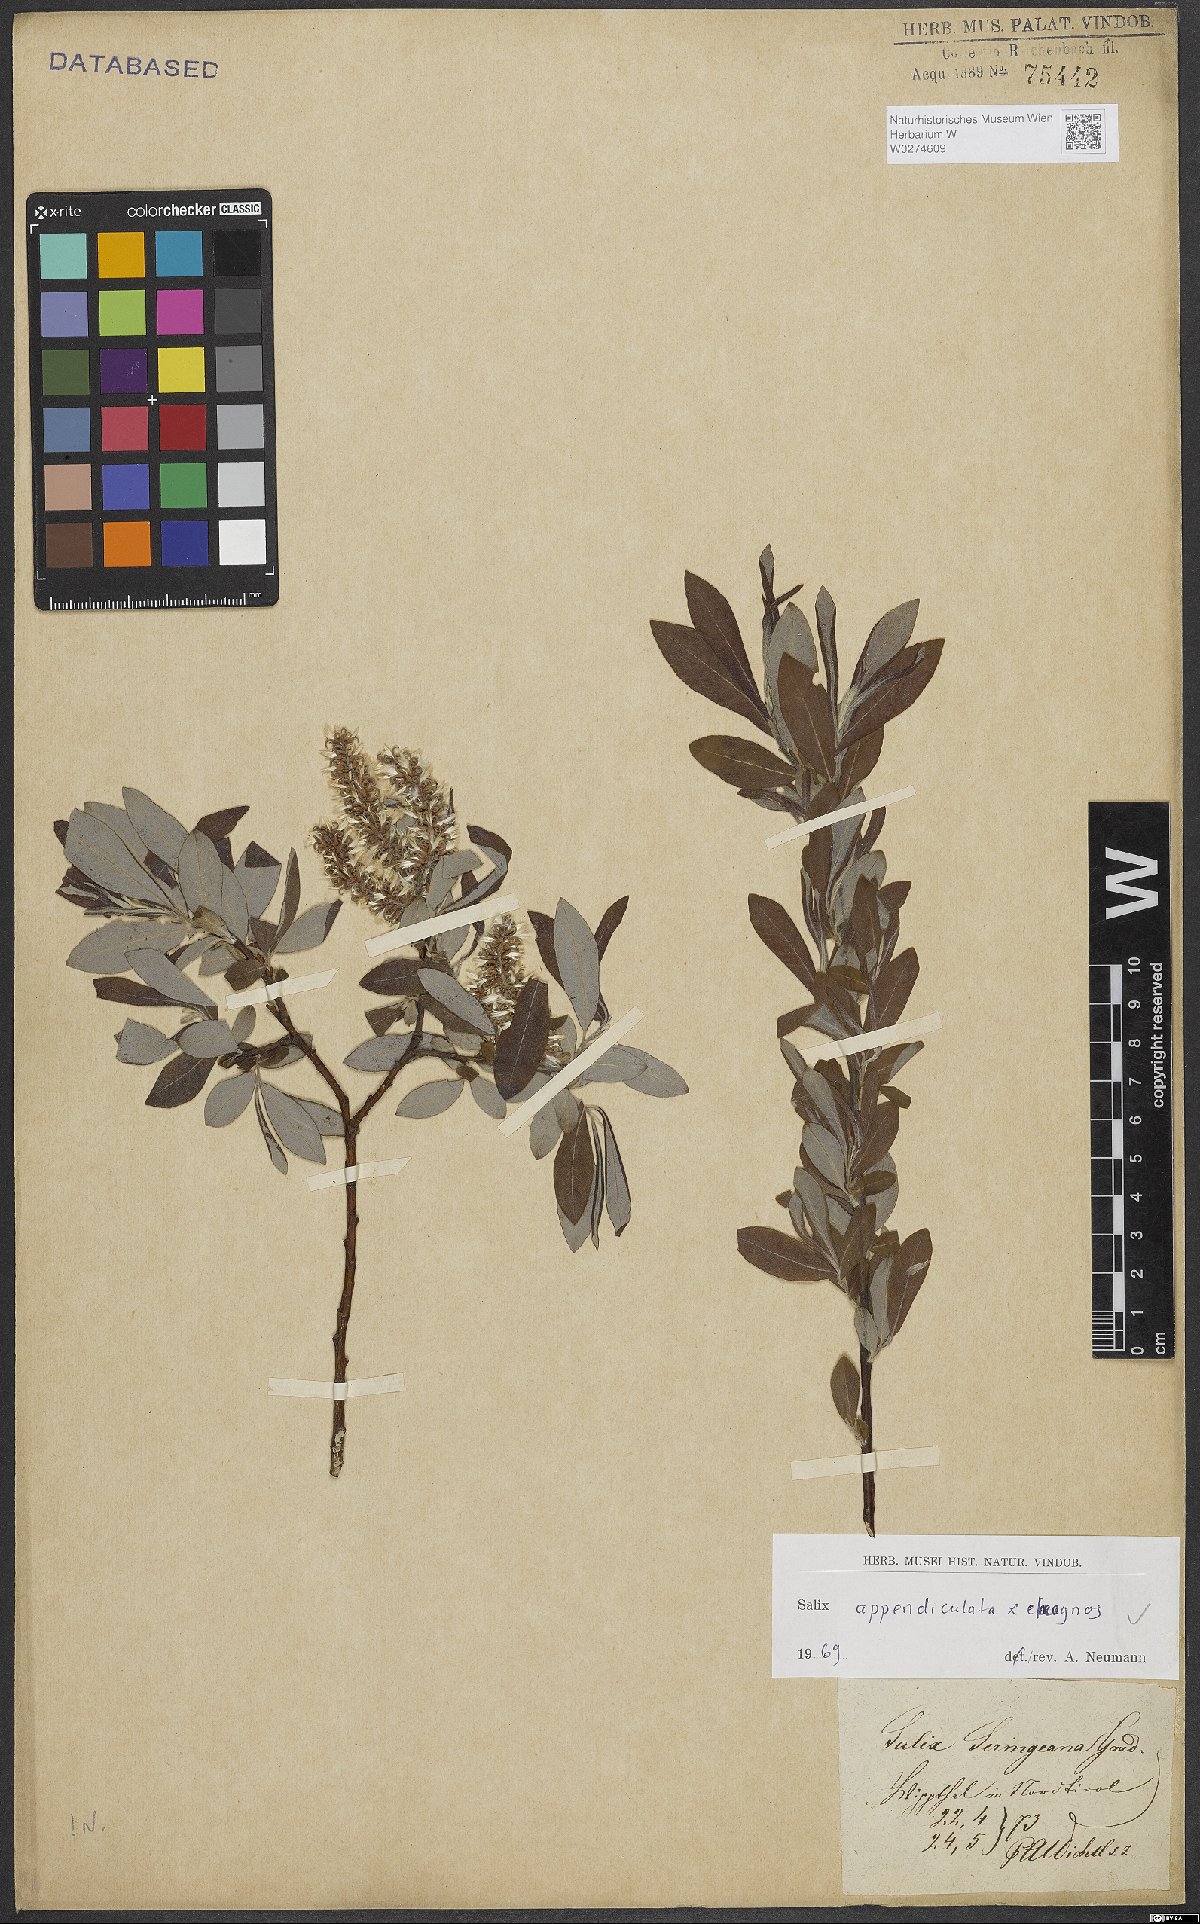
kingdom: Plantae
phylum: Tracheophyta
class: Magnoliopsida
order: Malpighiales
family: Salicaceae
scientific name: Salicaceae
